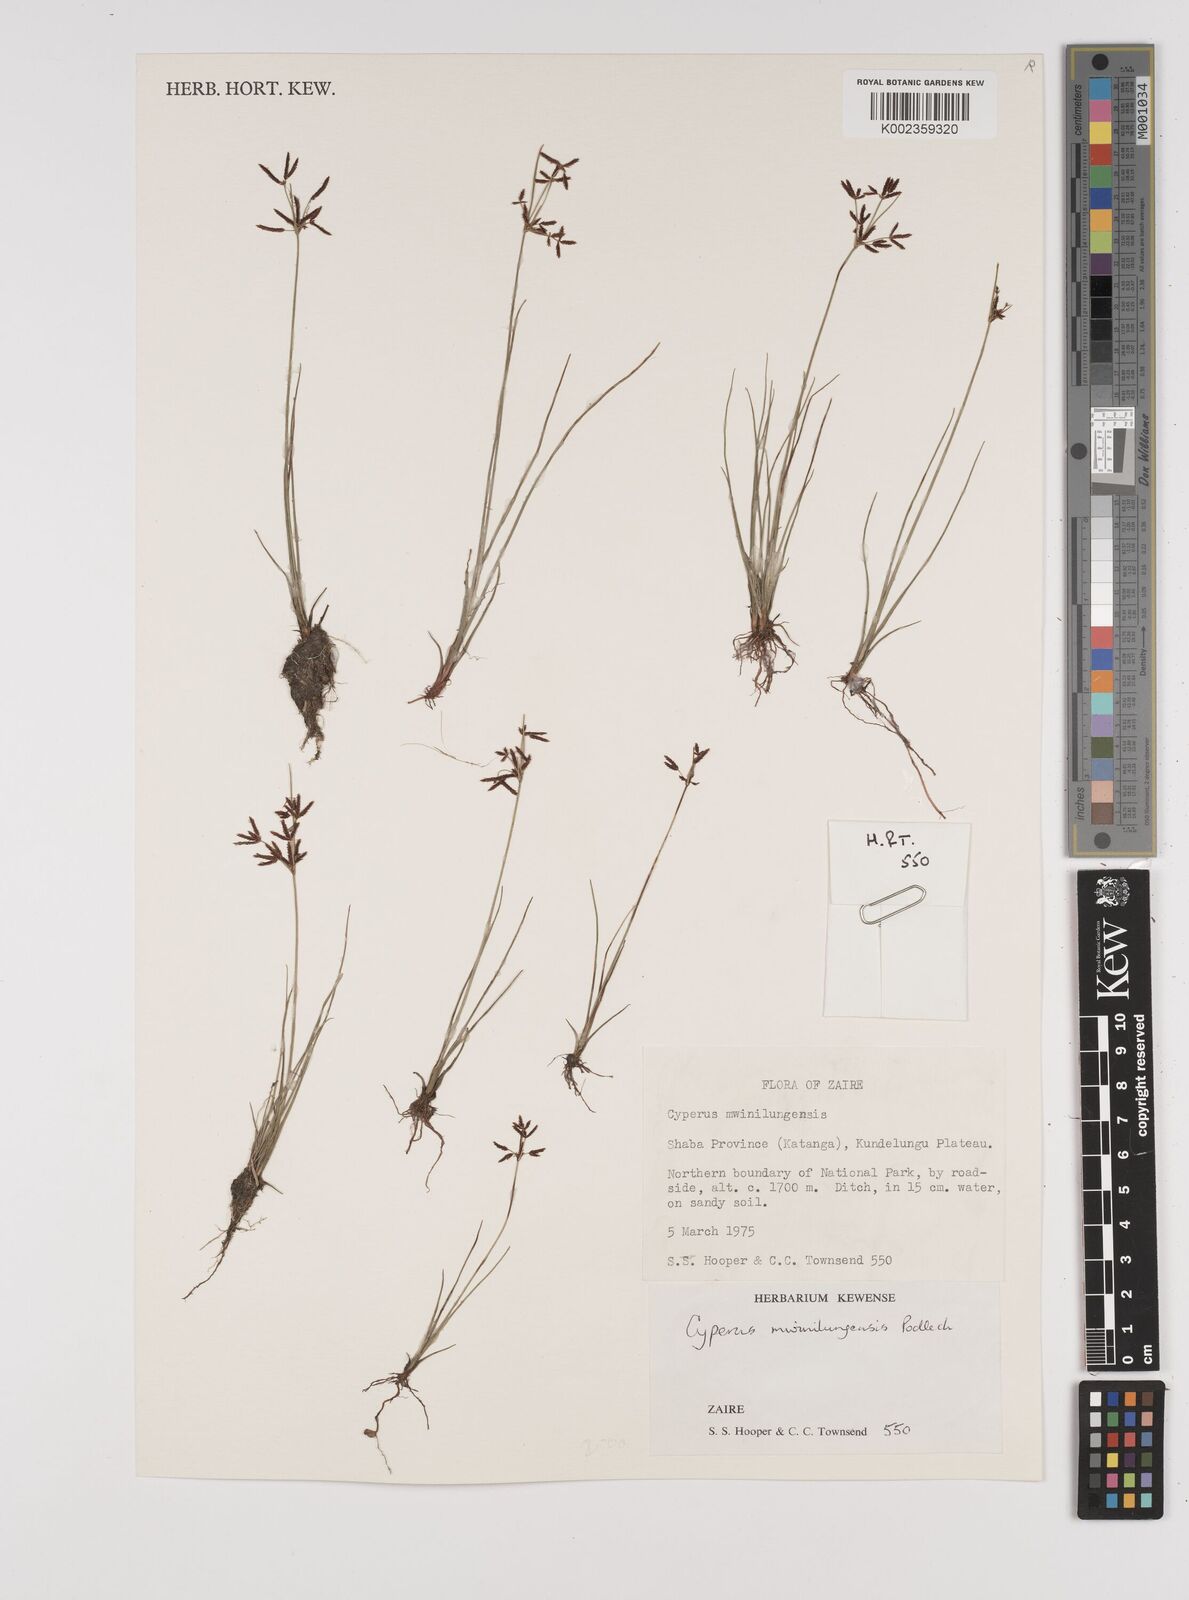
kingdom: Plantae
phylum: Tracheophyta
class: Liliopsida
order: Poales
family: Cyperaceae
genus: Cyperus
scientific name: Cyperus mwinilungensis
